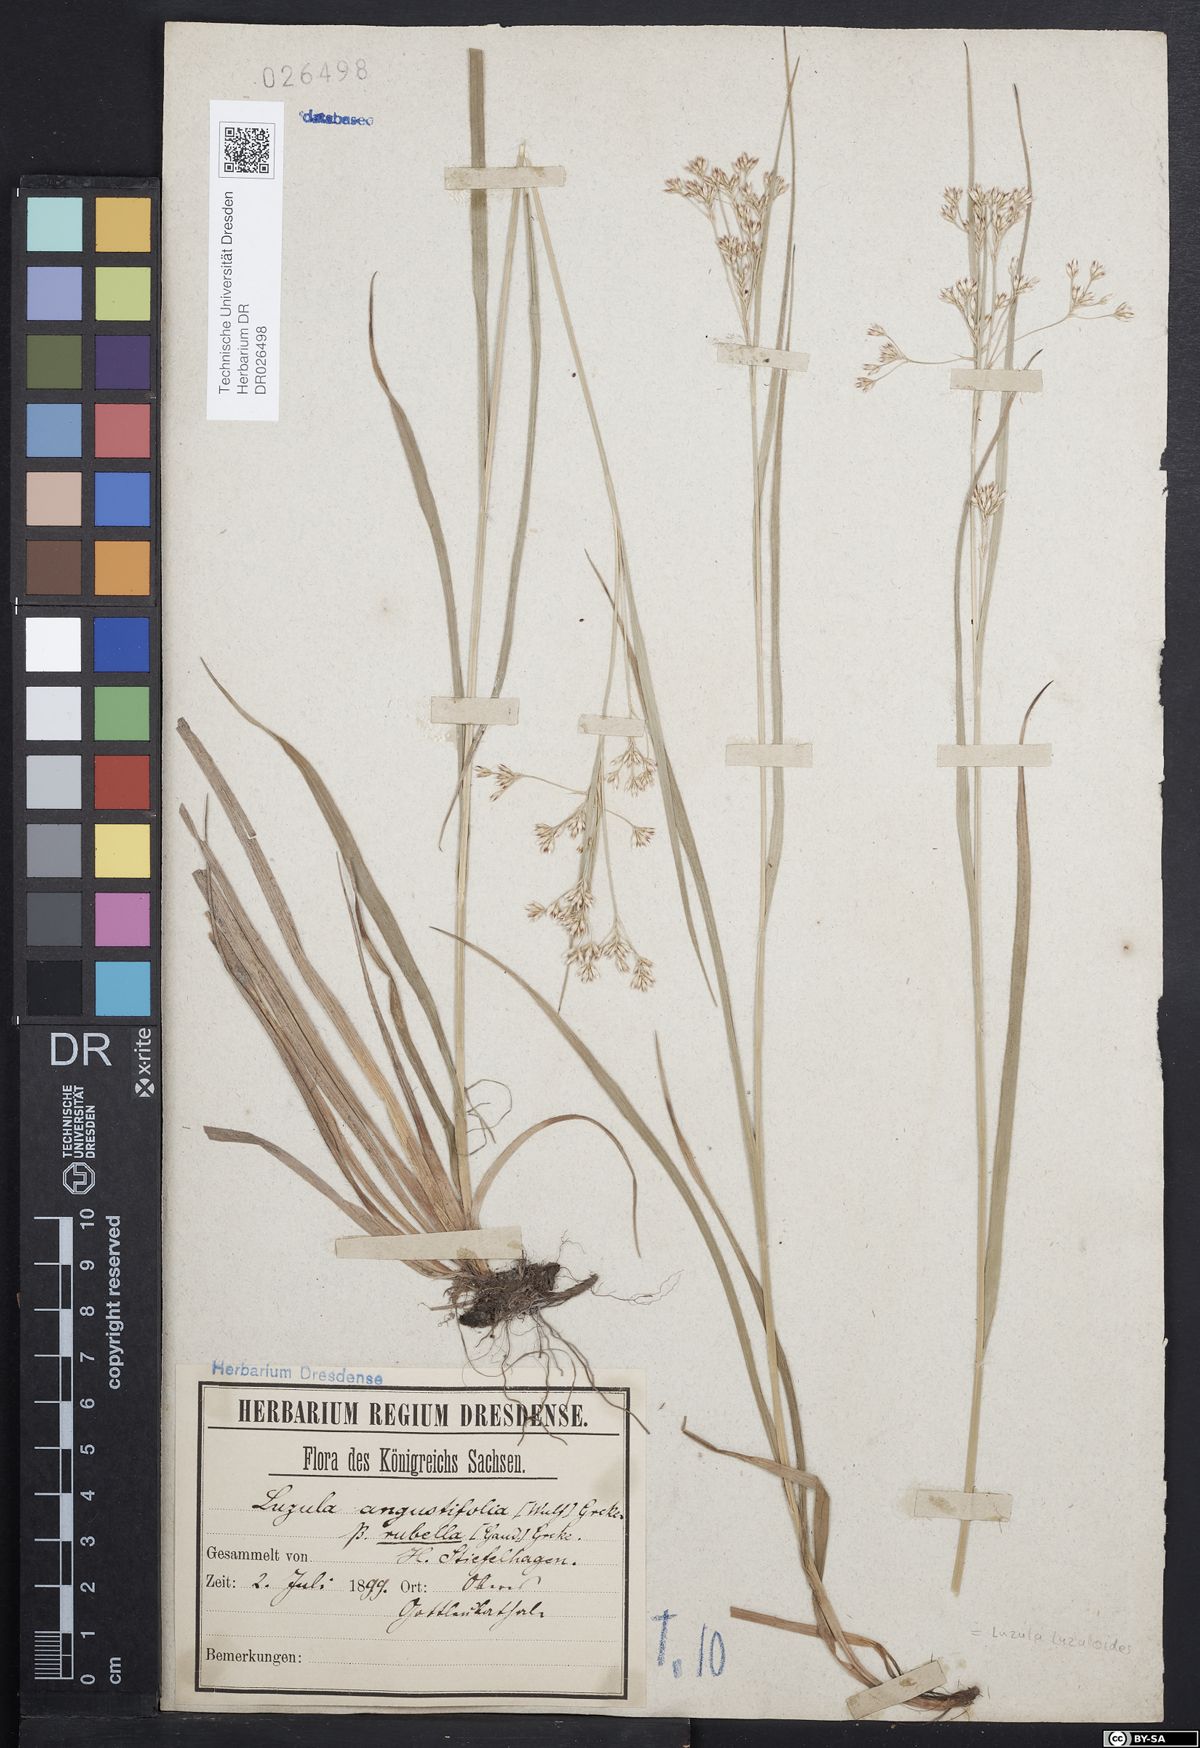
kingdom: Plantae
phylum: Tracheophyta
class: Liliopsida
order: Poales
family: Juncaceae
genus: Luzula
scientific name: Luzula luzuloides
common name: White wood-rush
